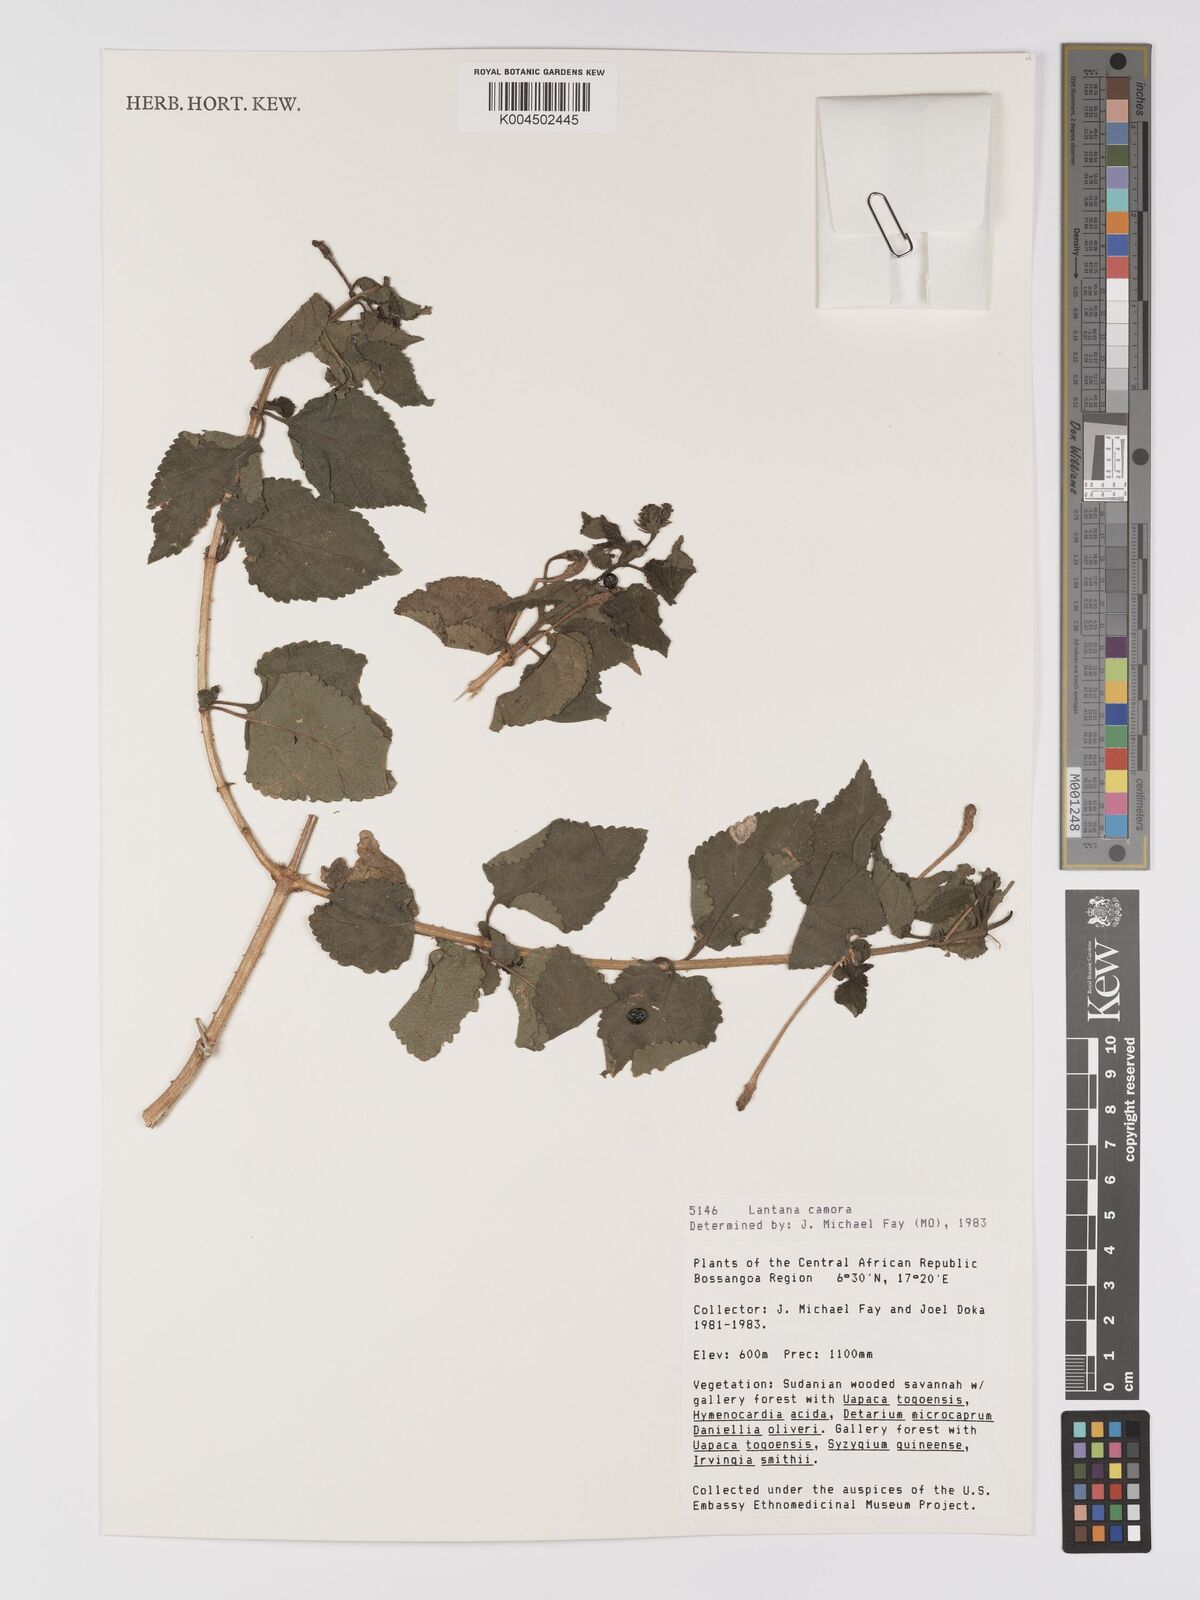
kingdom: Plantae
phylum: Tracheophyta
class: Magnoliopsida
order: Lamiales
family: Verbenaceae
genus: Lantana
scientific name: Lantana camara
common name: Lantana
